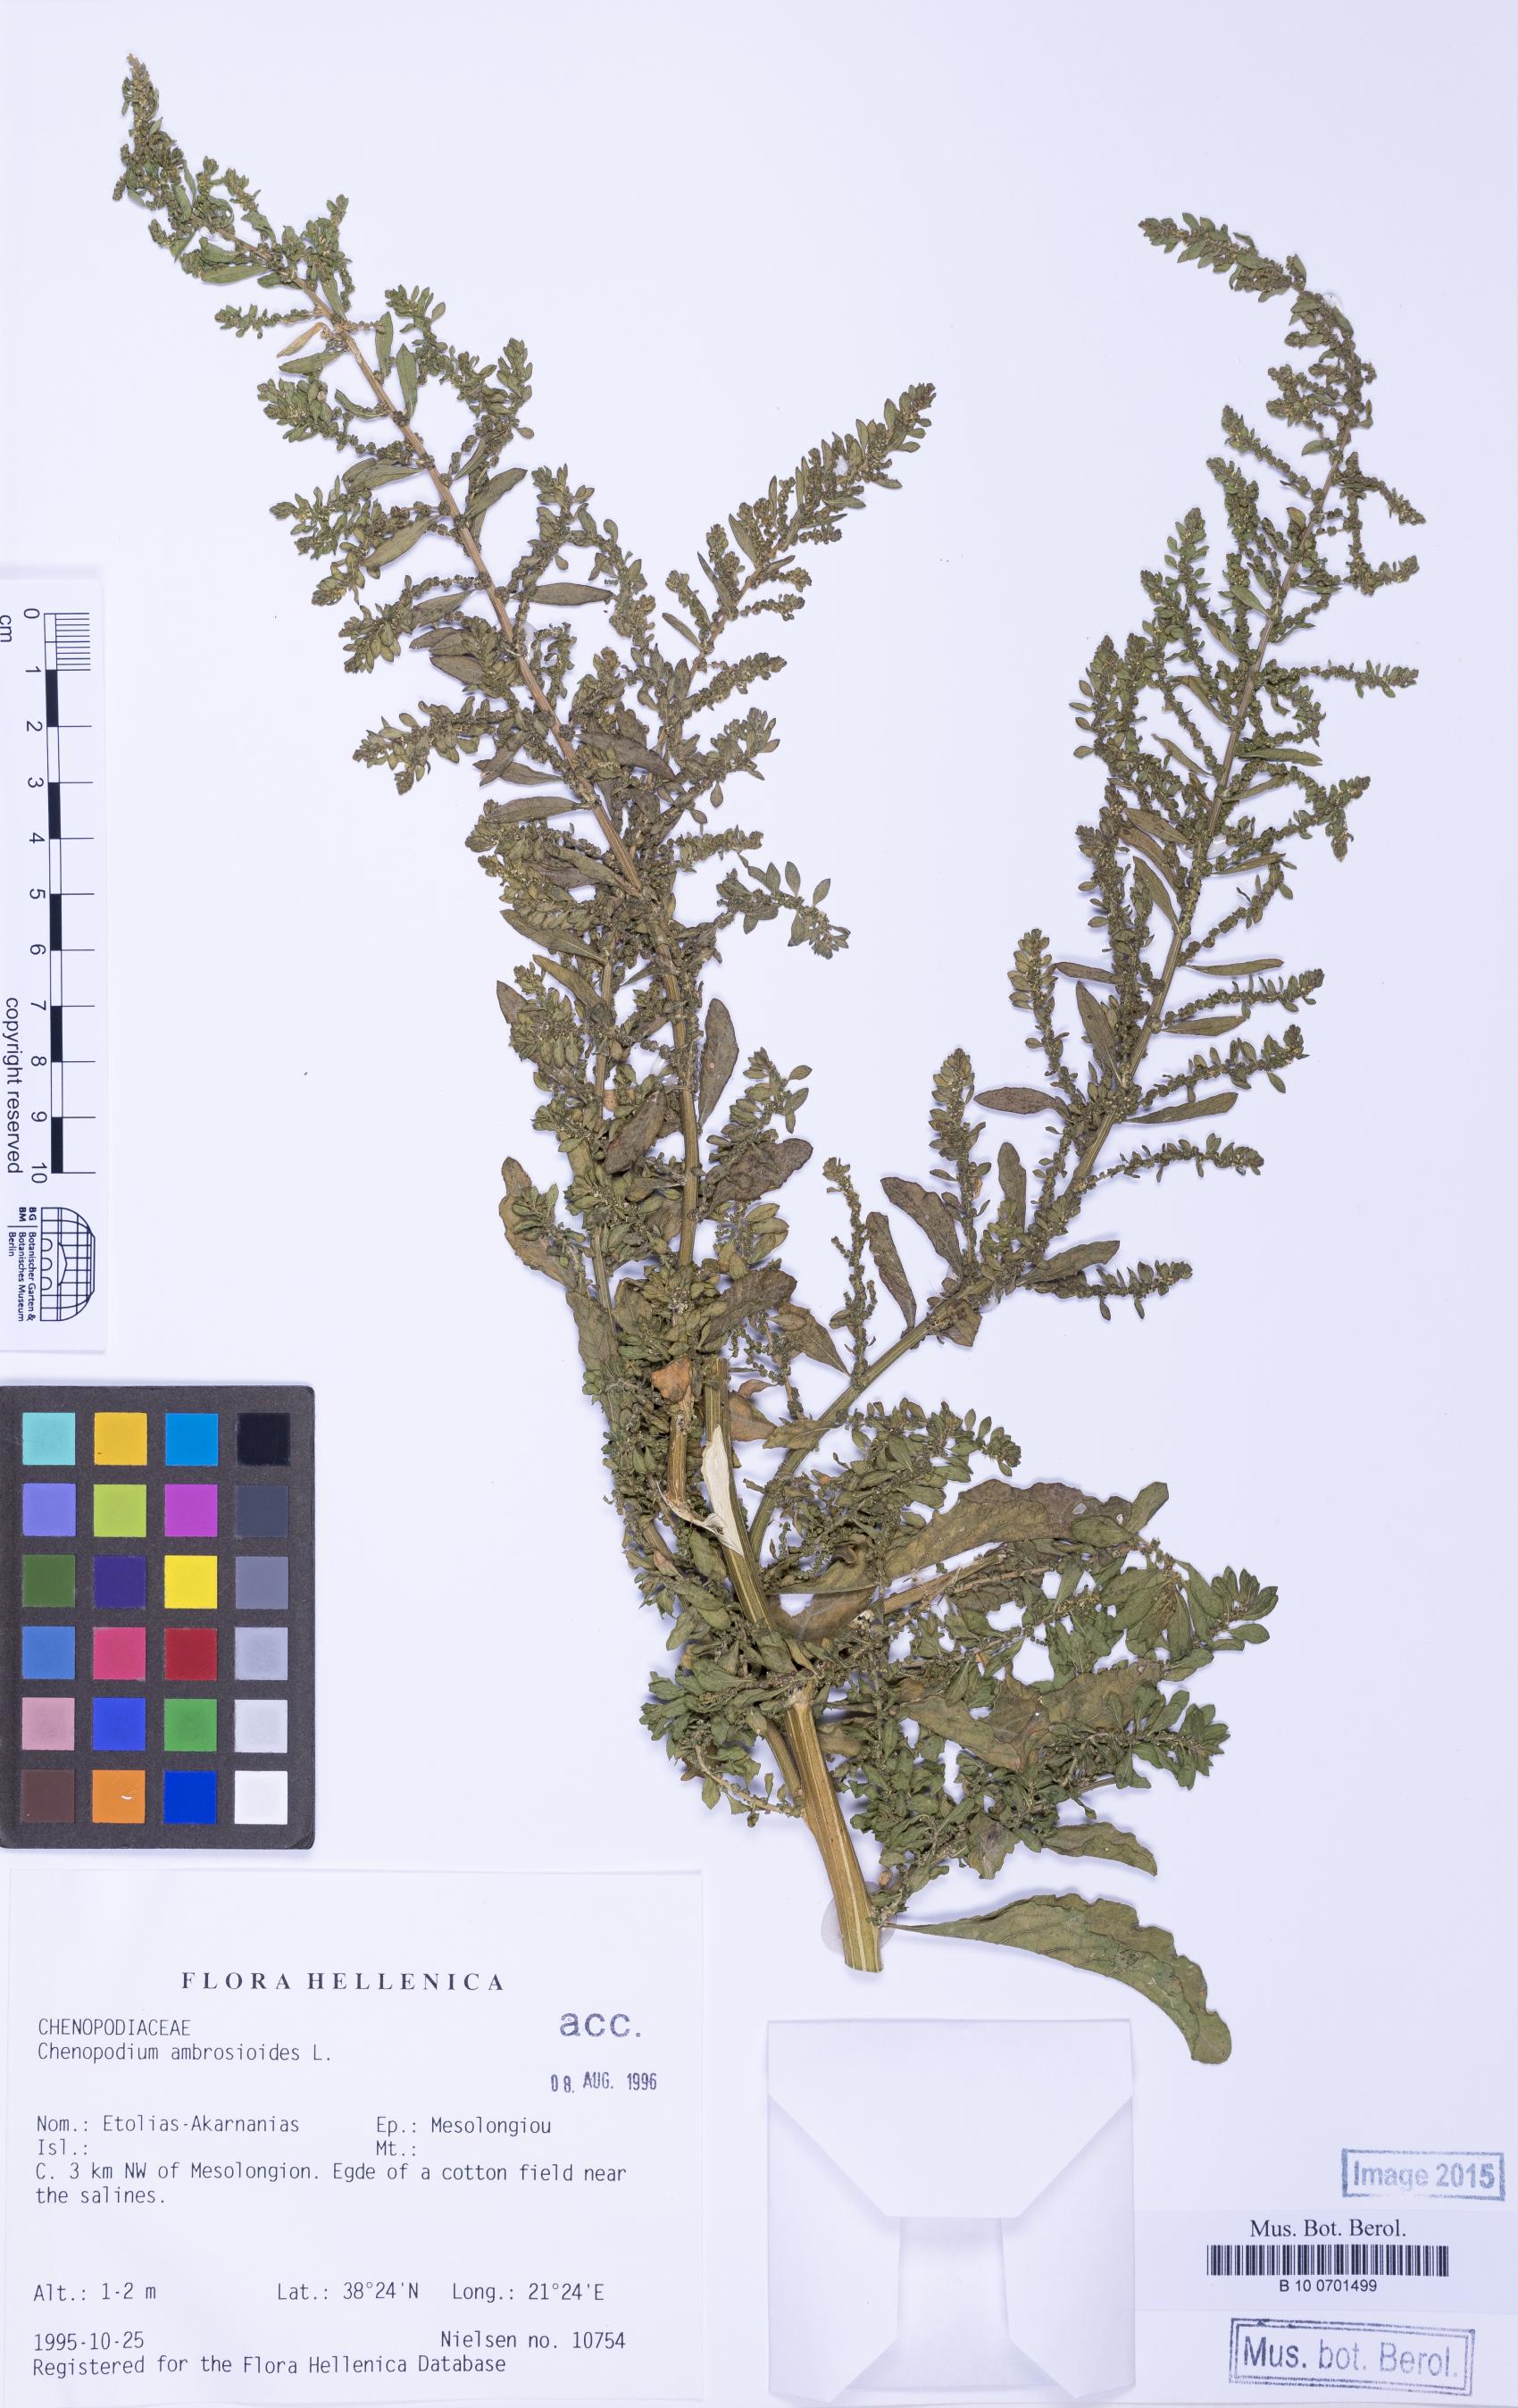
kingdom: Plantae
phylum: Tracheophyta
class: Magnoliopsida
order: Caryophyllales
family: Amaranthaceae
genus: Dysphania
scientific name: Dysphania ambrosioides
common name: Wormseed
